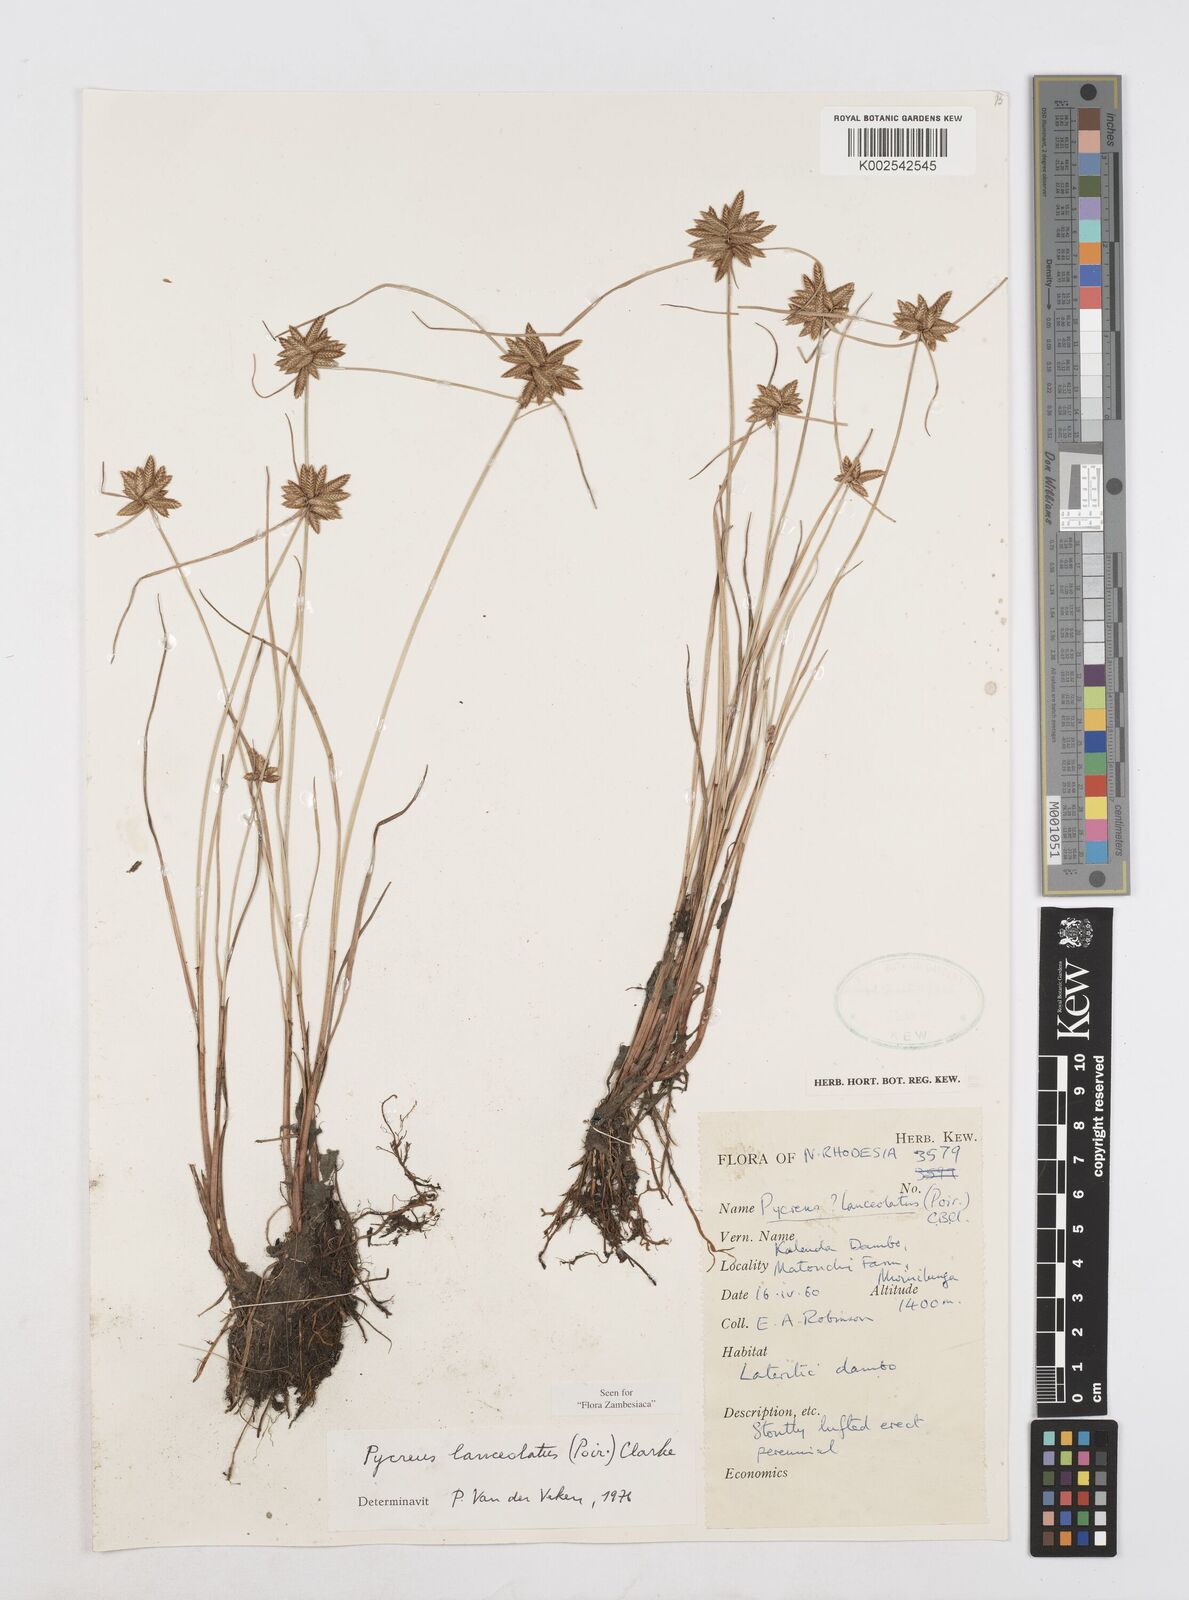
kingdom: Plantae
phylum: Tracheophyta
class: Liliopsida
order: Poales
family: Cyperaceae
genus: Cyperus
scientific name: Cyperus
